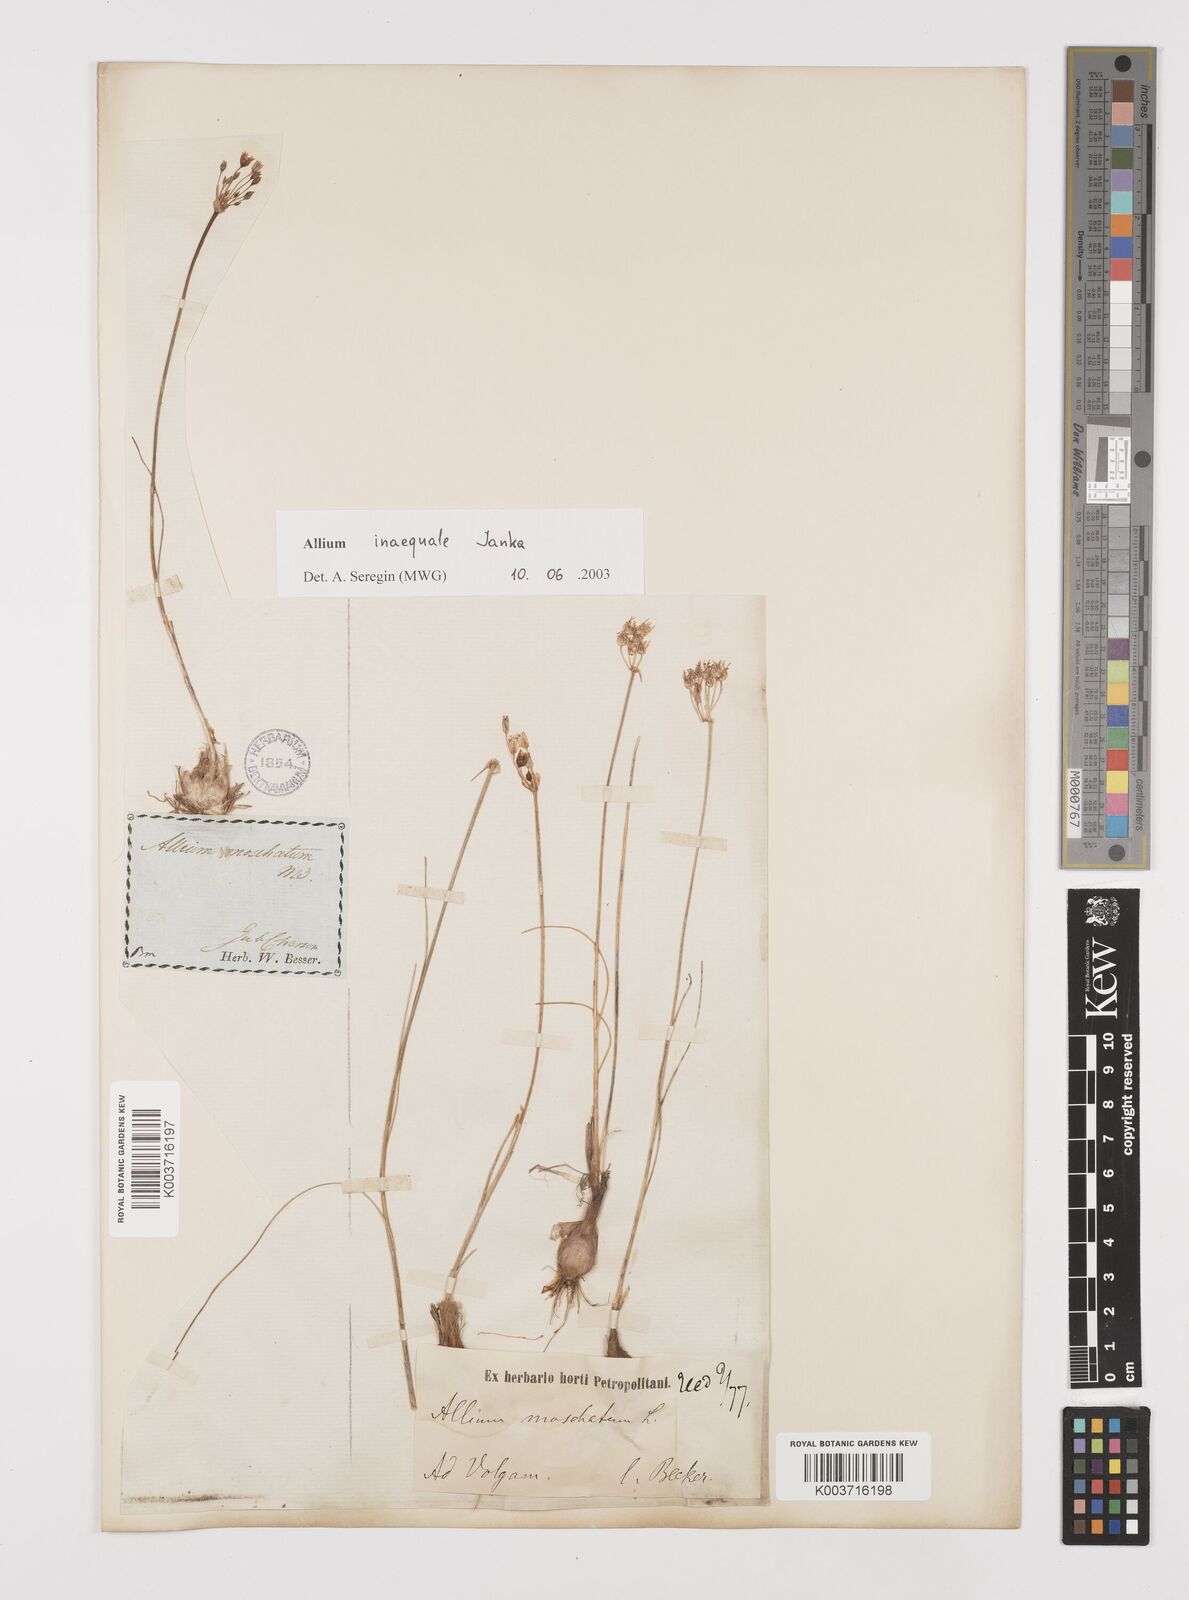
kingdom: Plantae
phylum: Tracheophyta
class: Liliopsida
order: Asparagales
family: Amaryllidaceae
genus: Allium
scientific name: Allium inaequale
